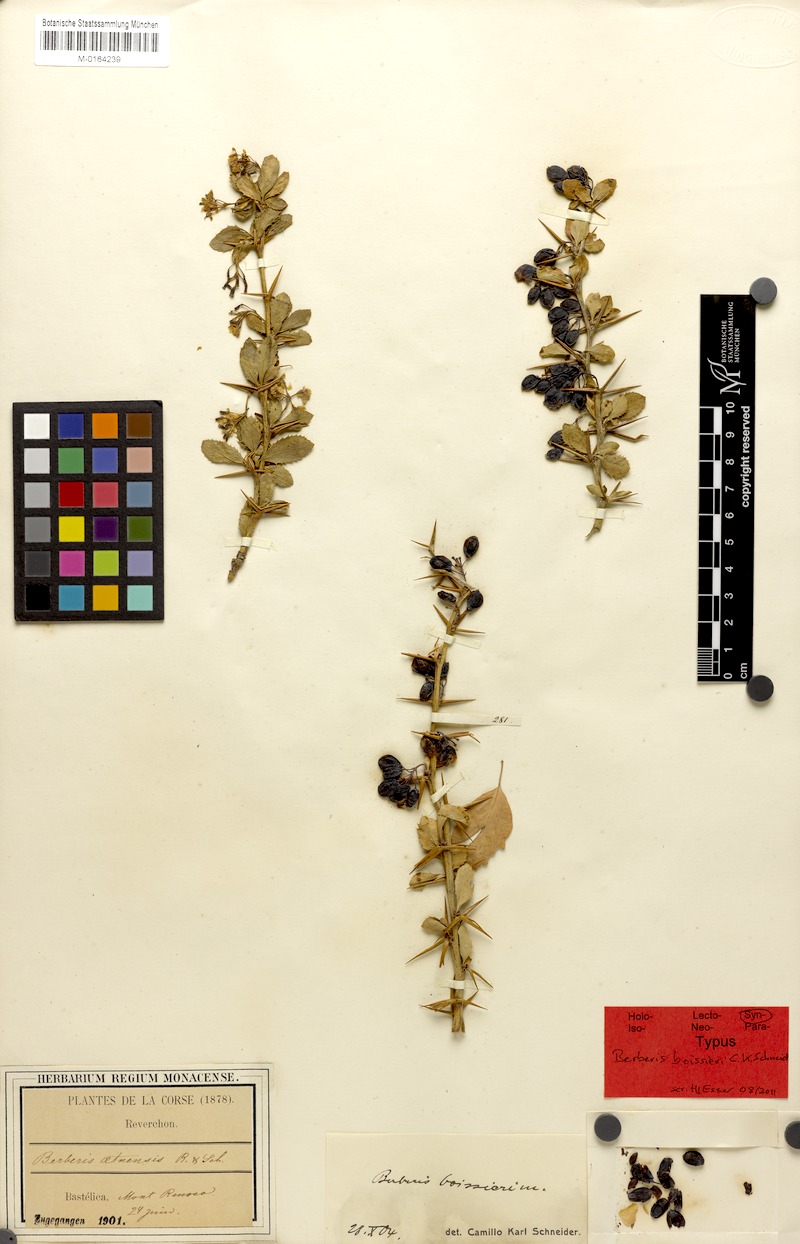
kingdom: Plantae
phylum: Tracheophyta
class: Magnoliopsida
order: Ranunculales
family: Berberidaceae
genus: Berberis
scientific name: Berberis aetnensis
